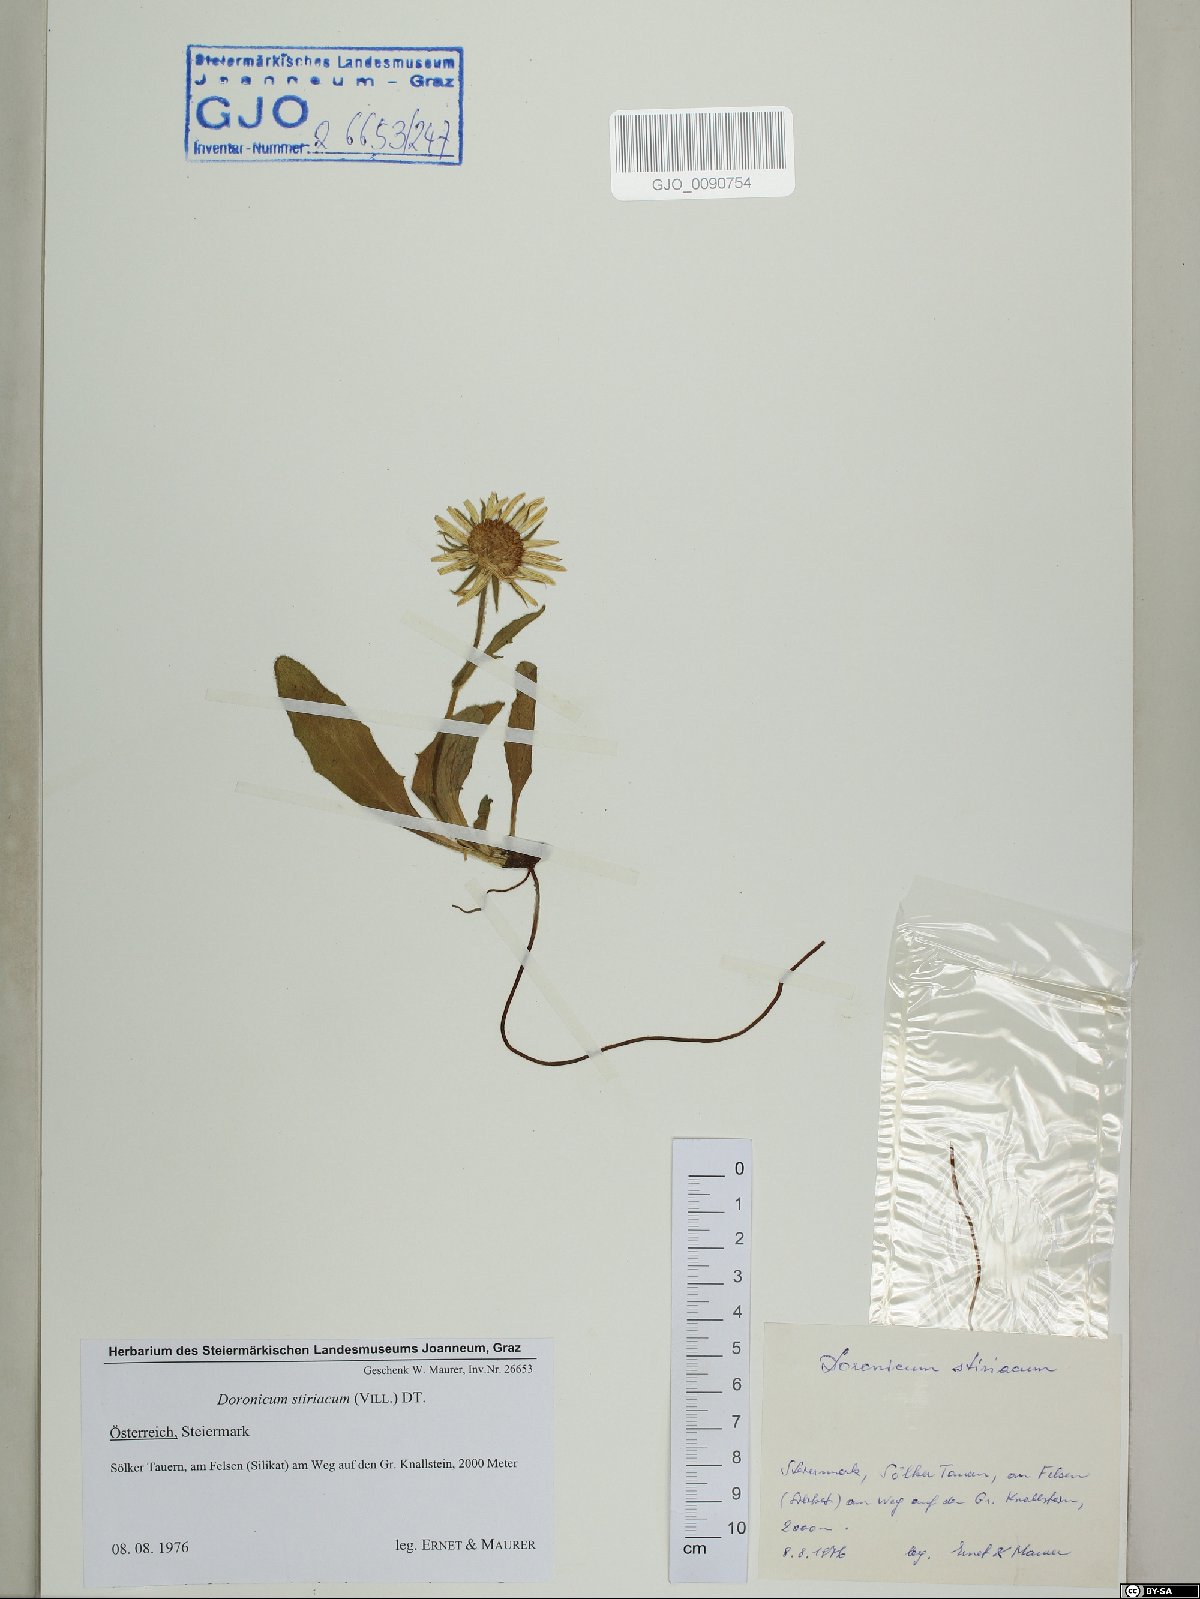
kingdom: Plantae
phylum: Tracheophyta
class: Magnoliopsida
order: Asterales
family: Asteraceae
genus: Doronicum
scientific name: Doronicum clusii
